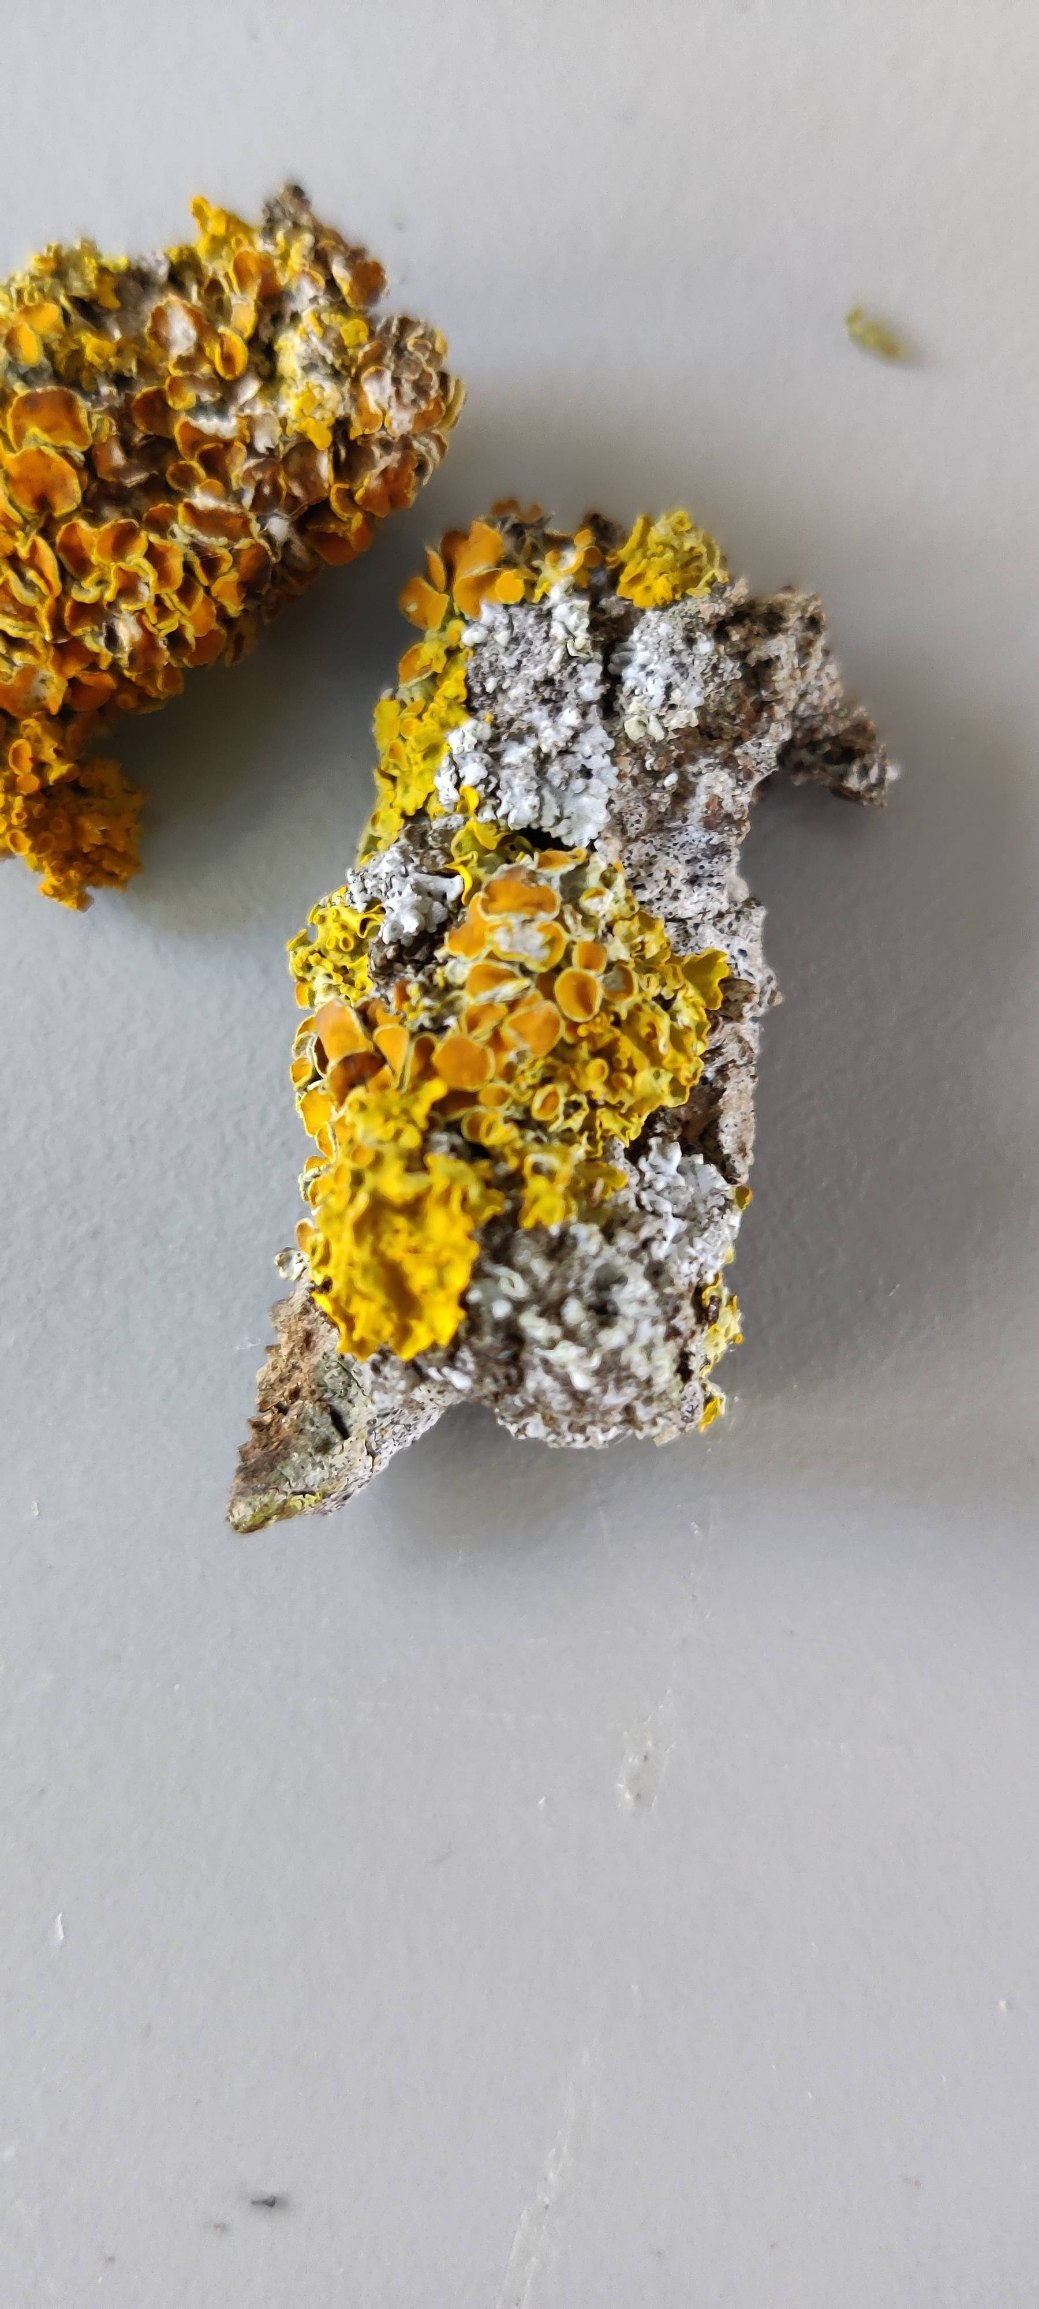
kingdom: Fungi
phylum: Ascomycota
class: Lecanoromycetes
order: Teloschistales
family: Teloschistaceae
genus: Xanthoria
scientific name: Xanthoria parietina
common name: Almindelig væggelav
